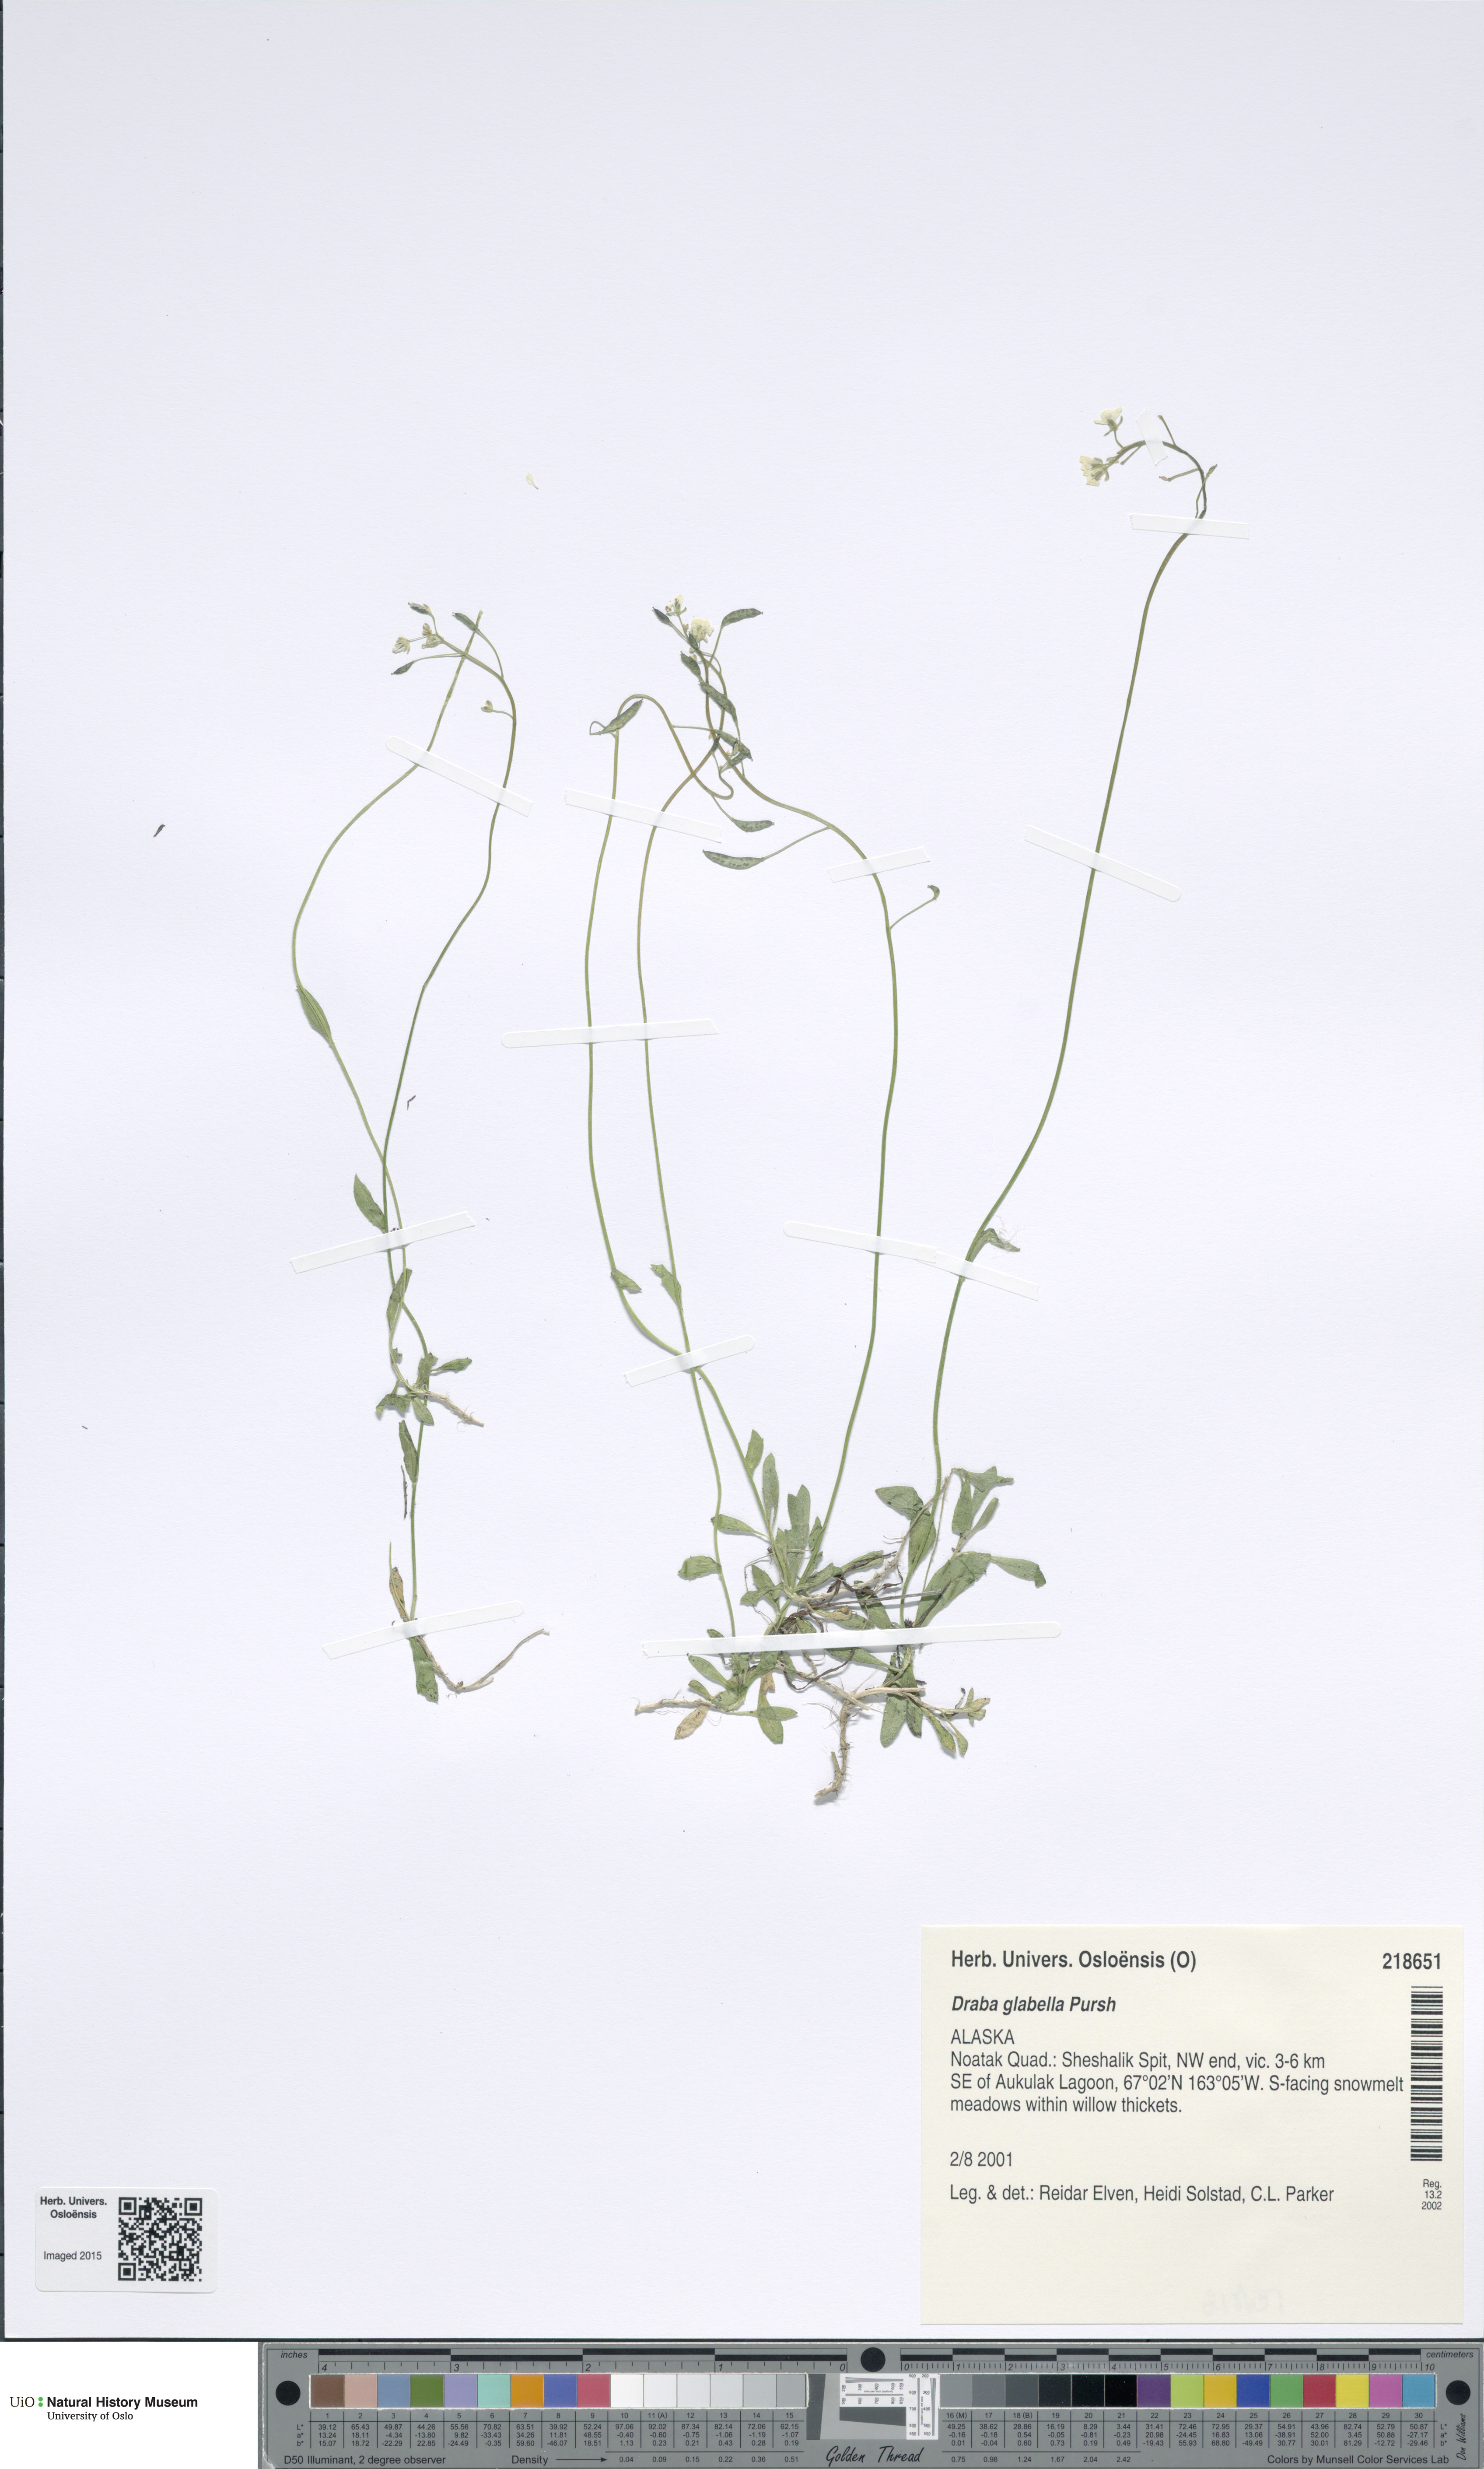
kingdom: Plantae
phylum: Tracheophyta
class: Magnoliopsida
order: Brassicales
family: Brassicaceae
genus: Draba
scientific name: Draba glabella
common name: Glaucous draba
